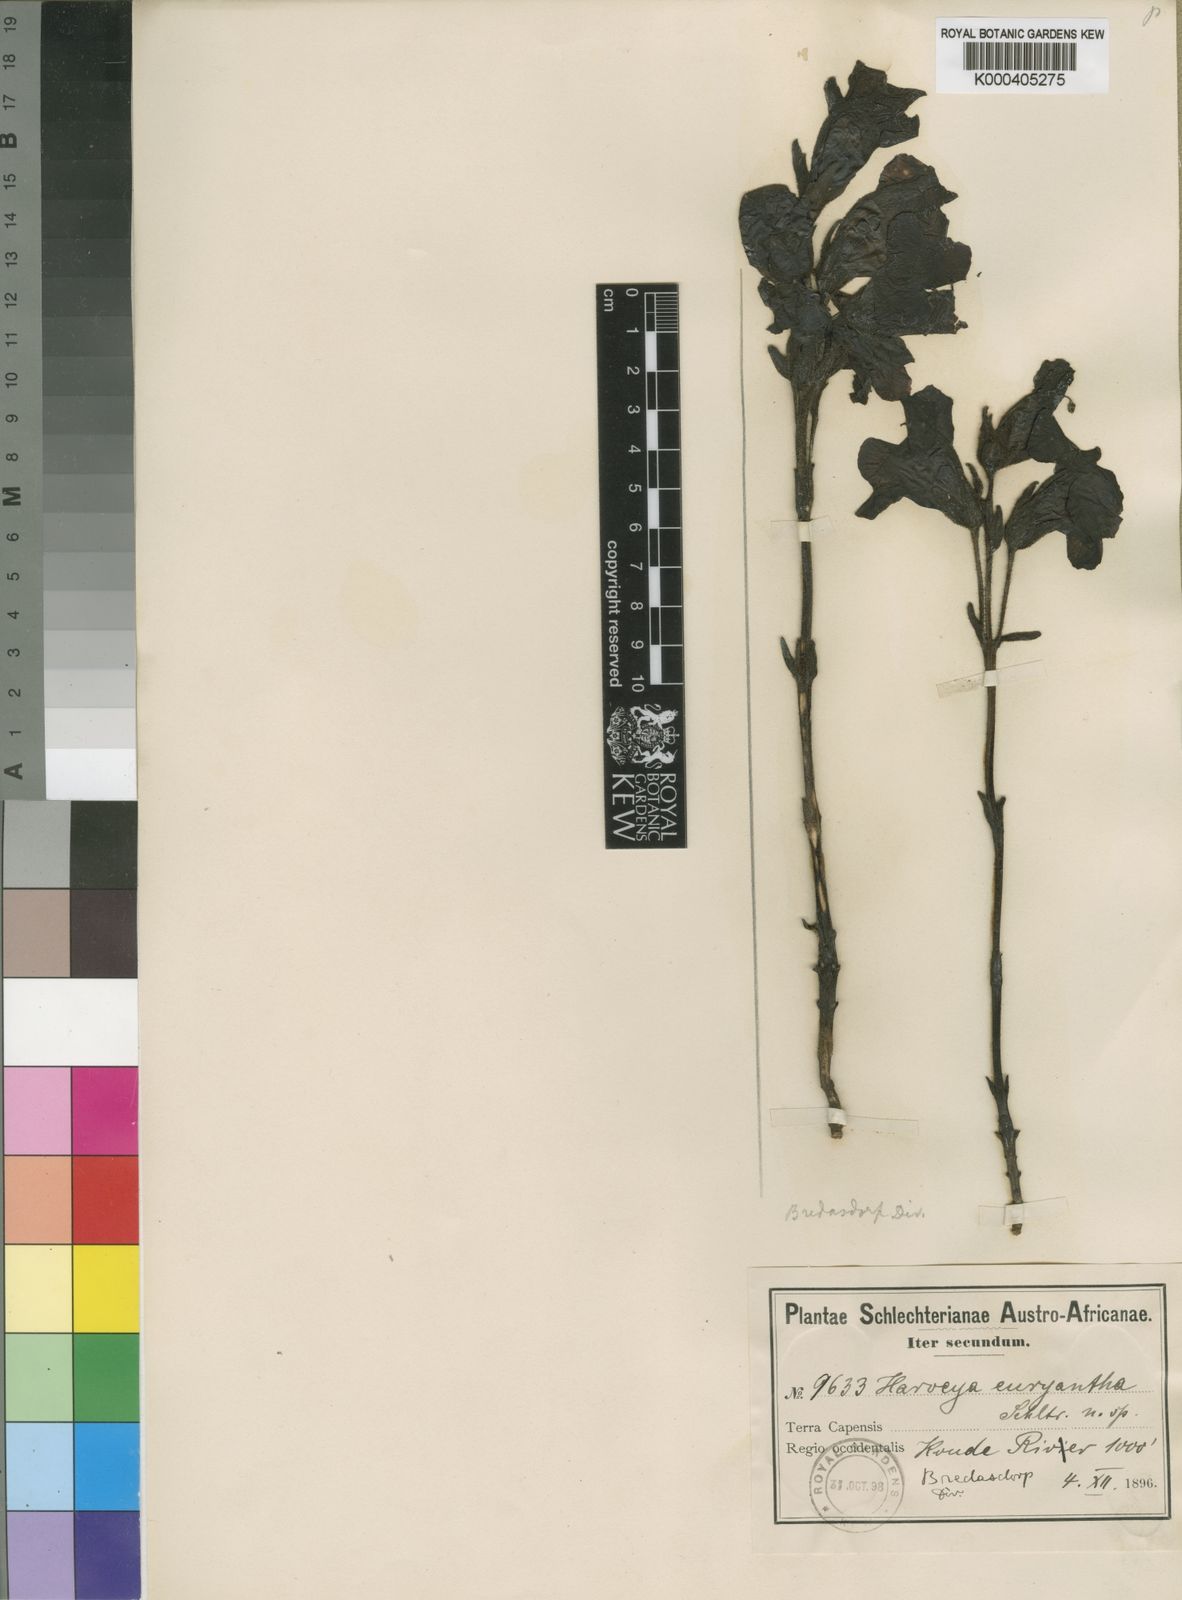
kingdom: Plantae
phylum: Tracheophyta
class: Magnoliopsida
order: Lamiales
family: Orobanchaceae
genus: Harveya
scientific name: Harveya purpurea
